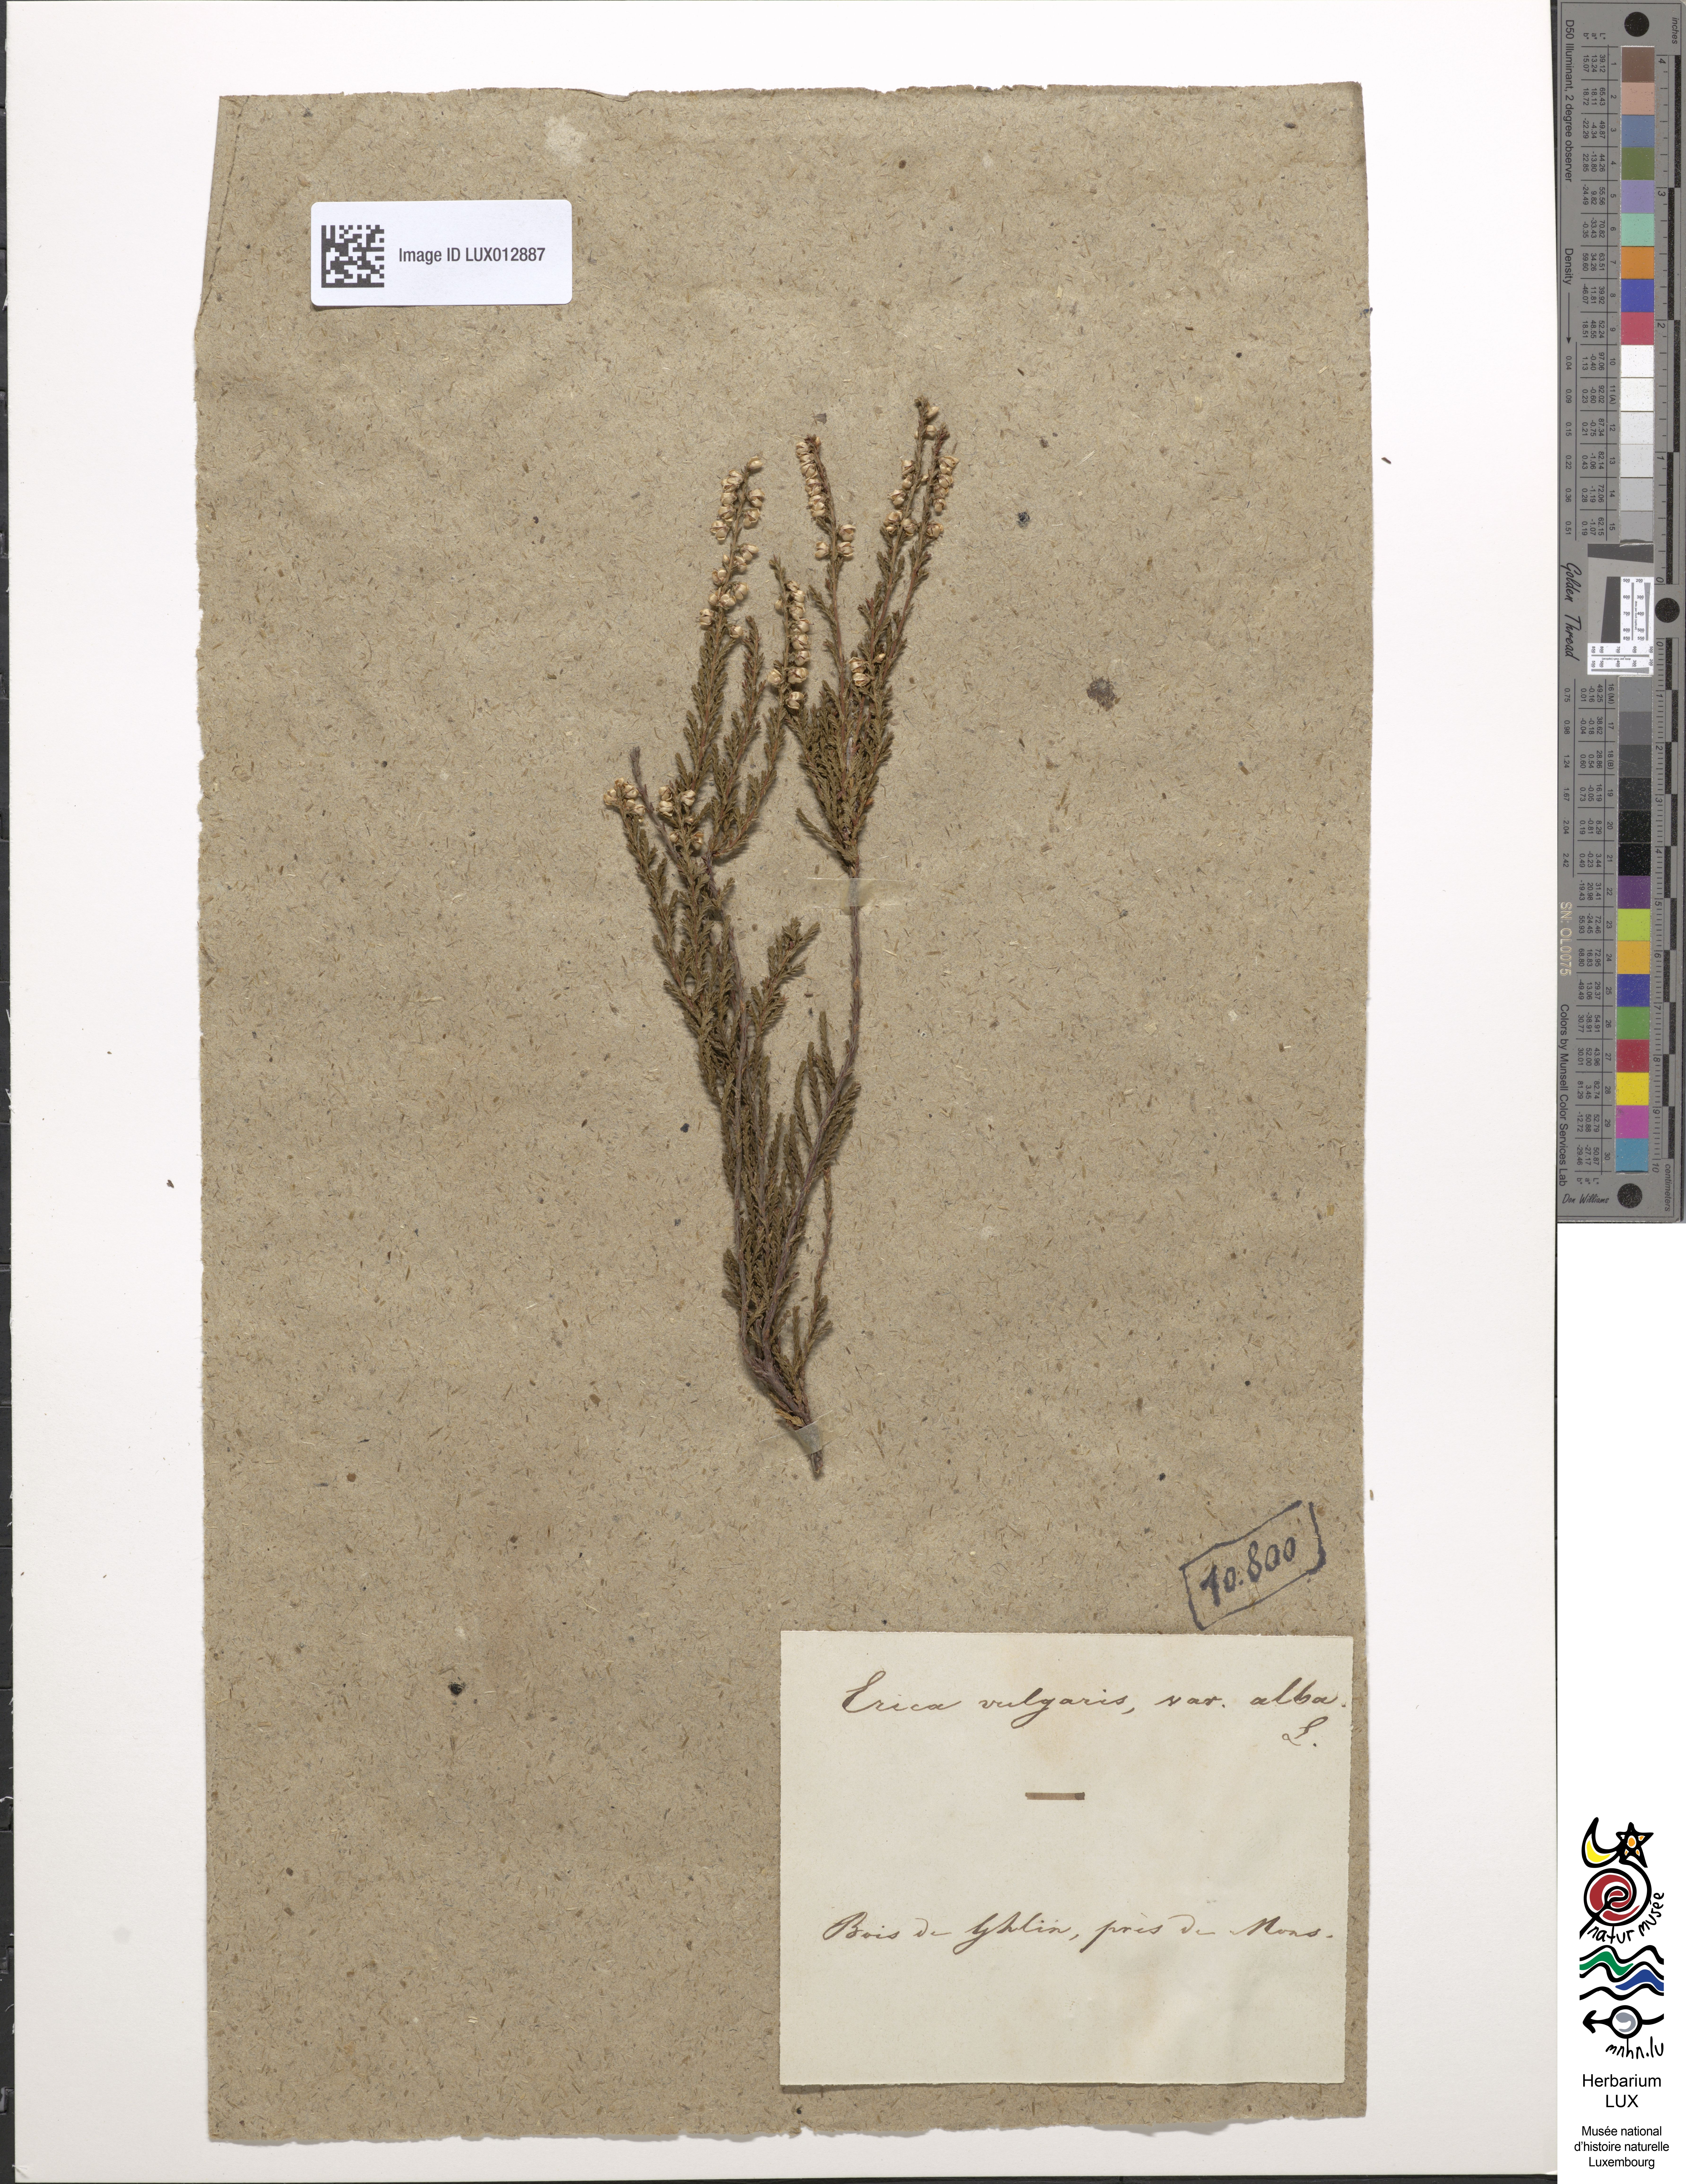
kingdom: Plantae
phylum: Tracheophyta
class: Magnoliopsida
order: Ericales
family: Ericaceae
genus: Calluna
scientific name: Calluna vulgaris
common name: Heather
